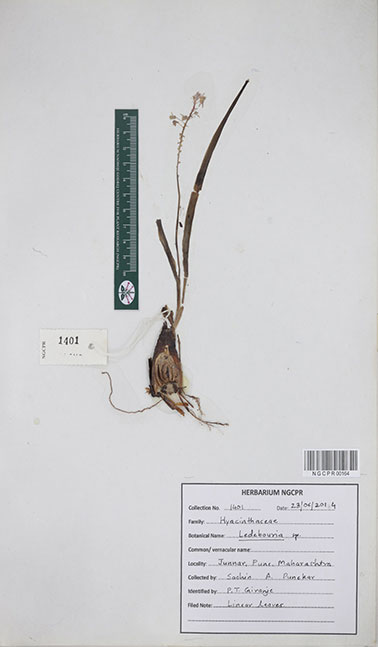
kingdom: Plantae
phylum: Tracheophyta
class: Liliopsida
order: Asparagales
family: Asparagaceae
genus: Ledebouria
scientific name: Ledebouria
